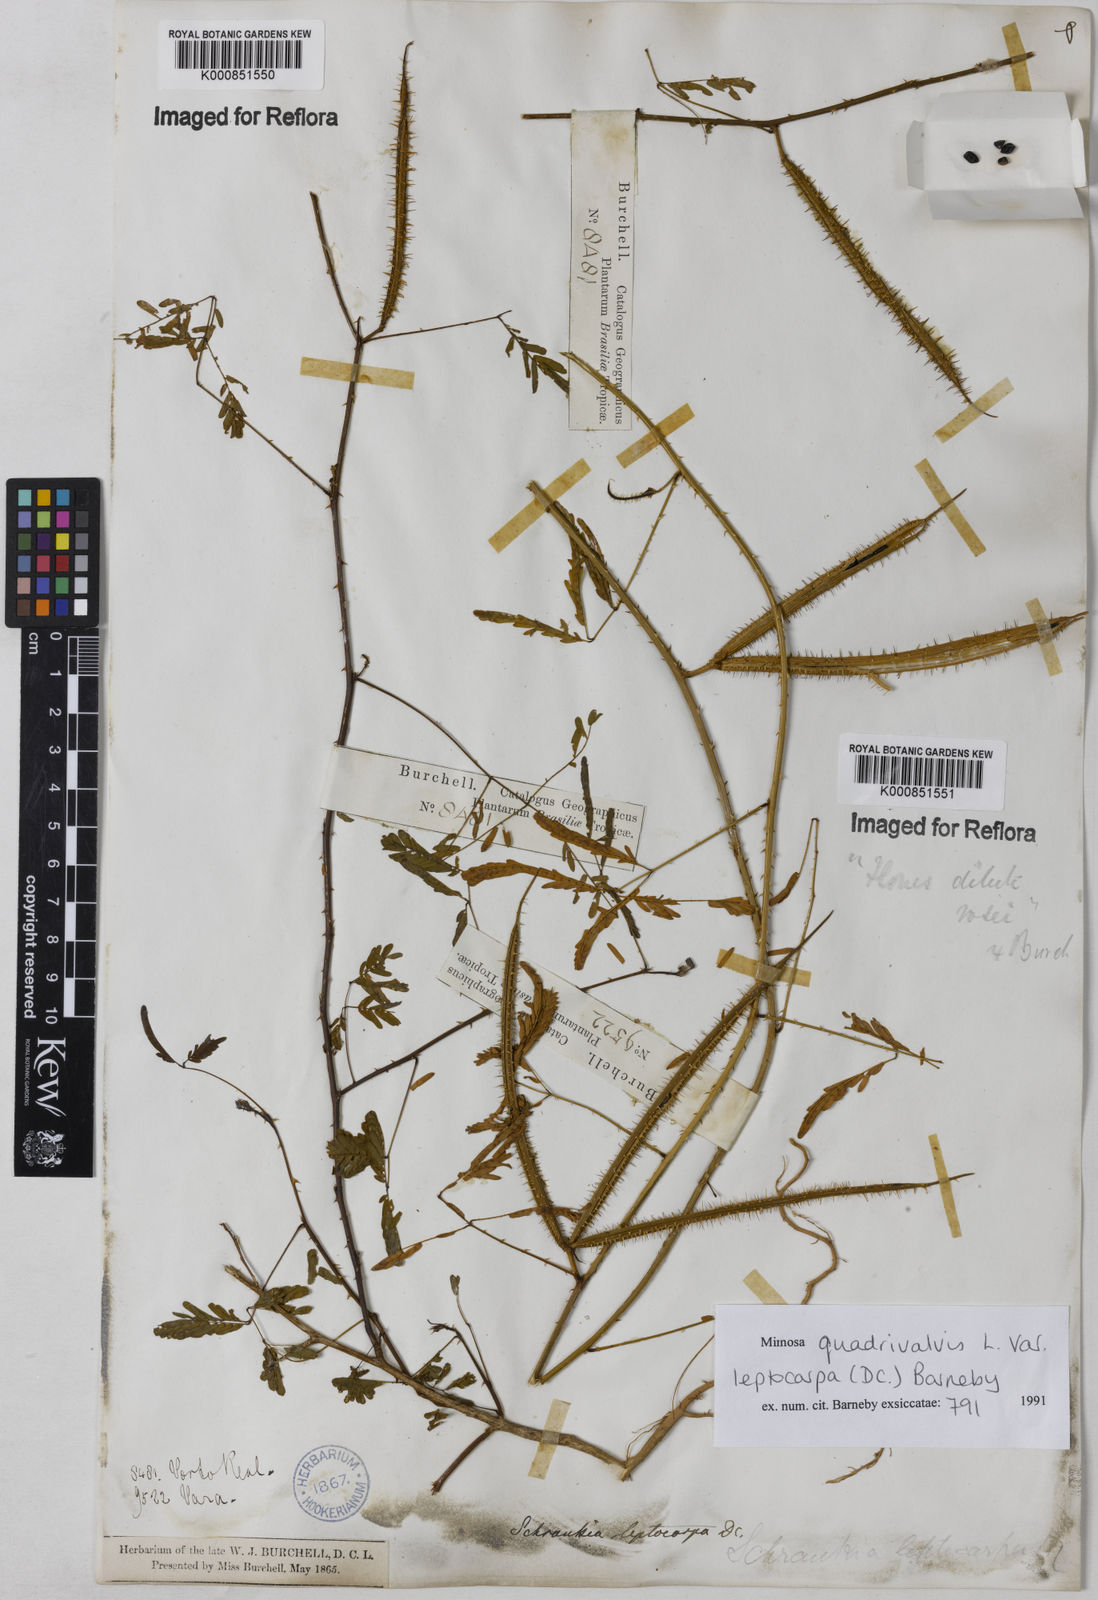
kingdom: Plantae
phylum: Tracheophyta
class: Magnoliopsida
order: Fabales
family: Fabaceae
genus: Mimosa
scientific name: Mimosa candollei
